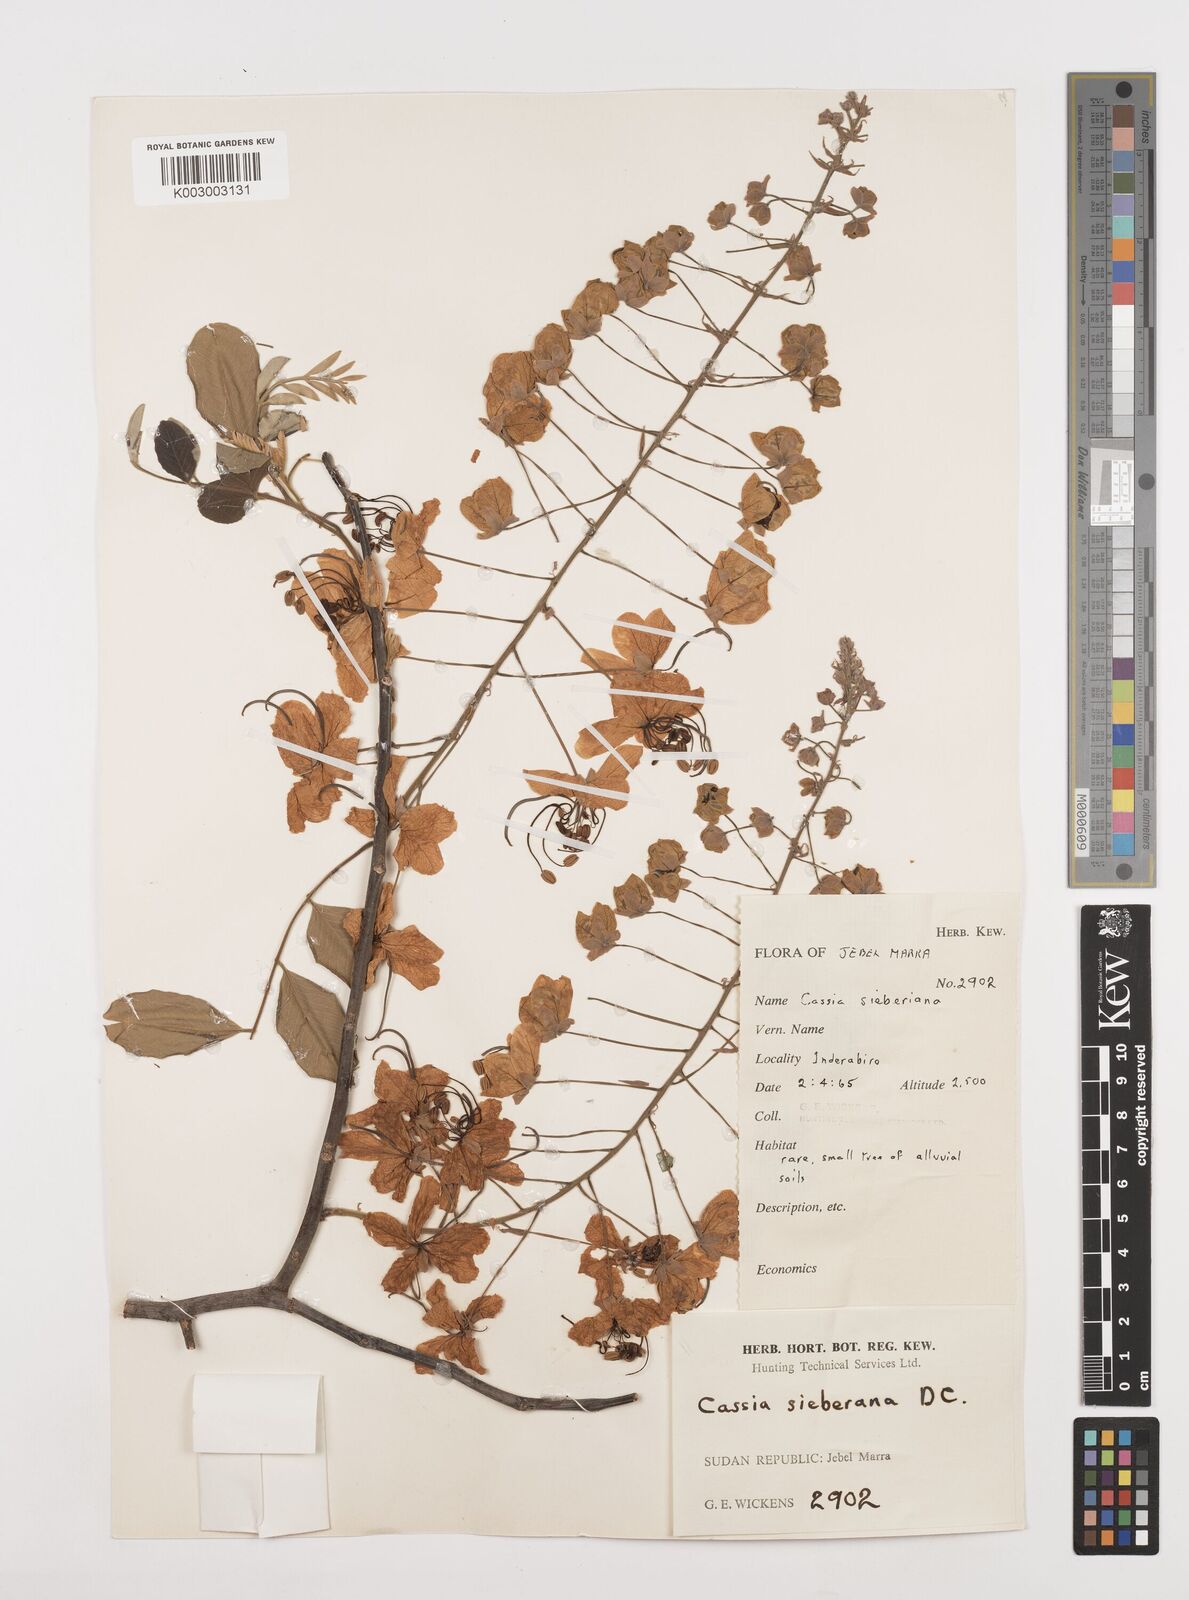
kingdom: Plantae
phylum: Tracheophyta
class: Magnoliopsida
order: Fabales
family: Fabaceae
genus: Cassia
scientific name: Cassia sieberiana
